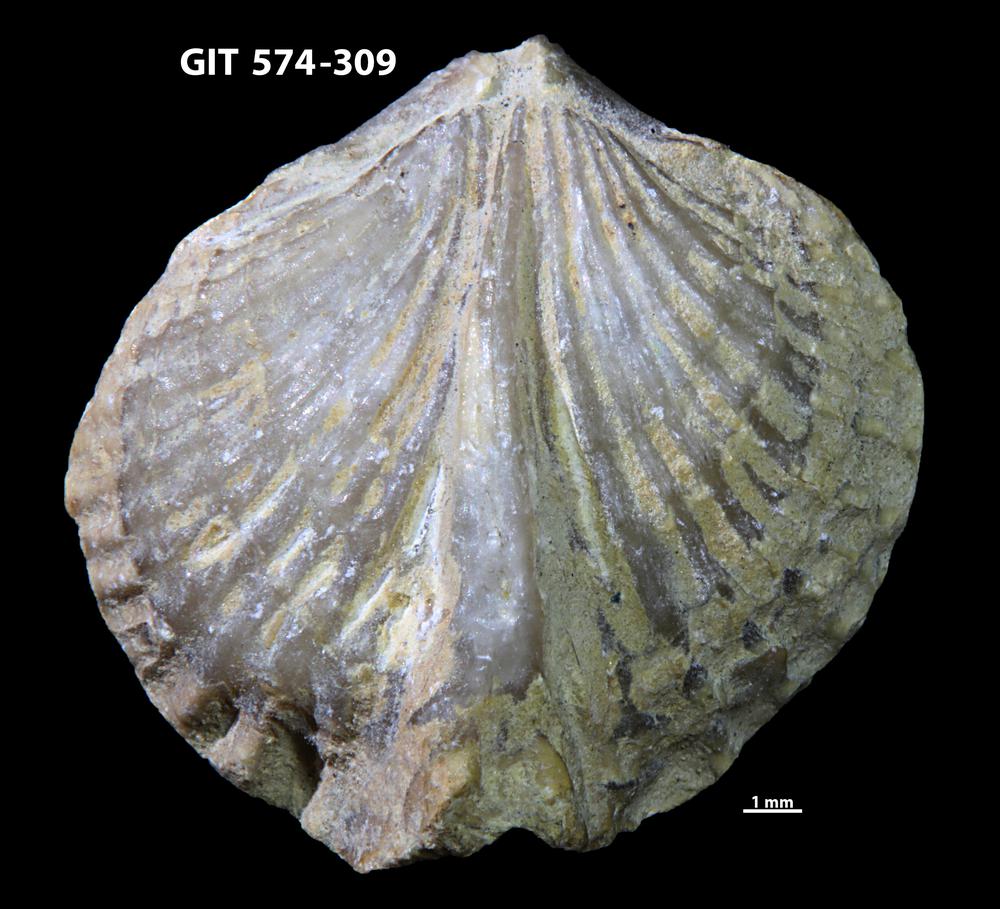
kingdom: Animalia
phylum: Brachiopoda
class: Rhynchonellata
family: Atrypinidae
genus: Eospirigerina
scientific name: Eospirigerina Spirigerina porkuniana
